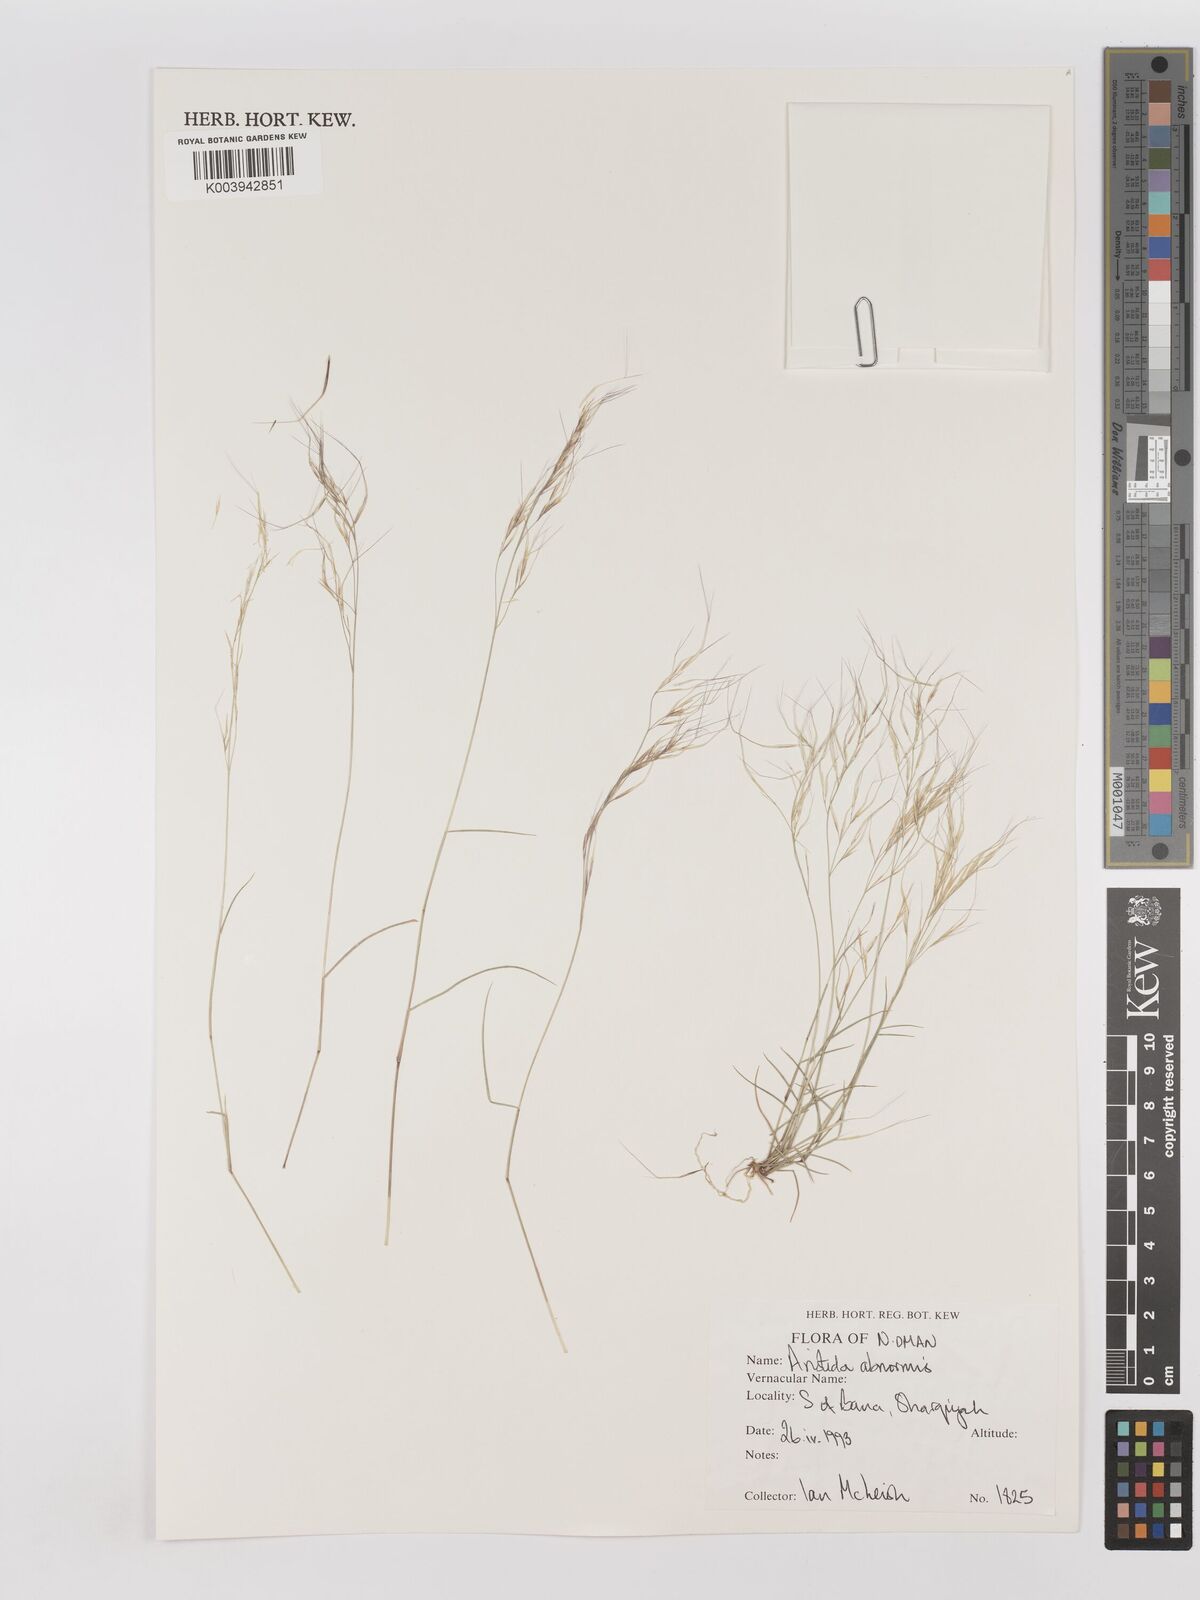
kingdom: Plantae
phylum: Tracheophyta
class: Liliopsida
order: Poales
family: Poaceae
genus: Aristida
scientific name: Aristida abnormis
